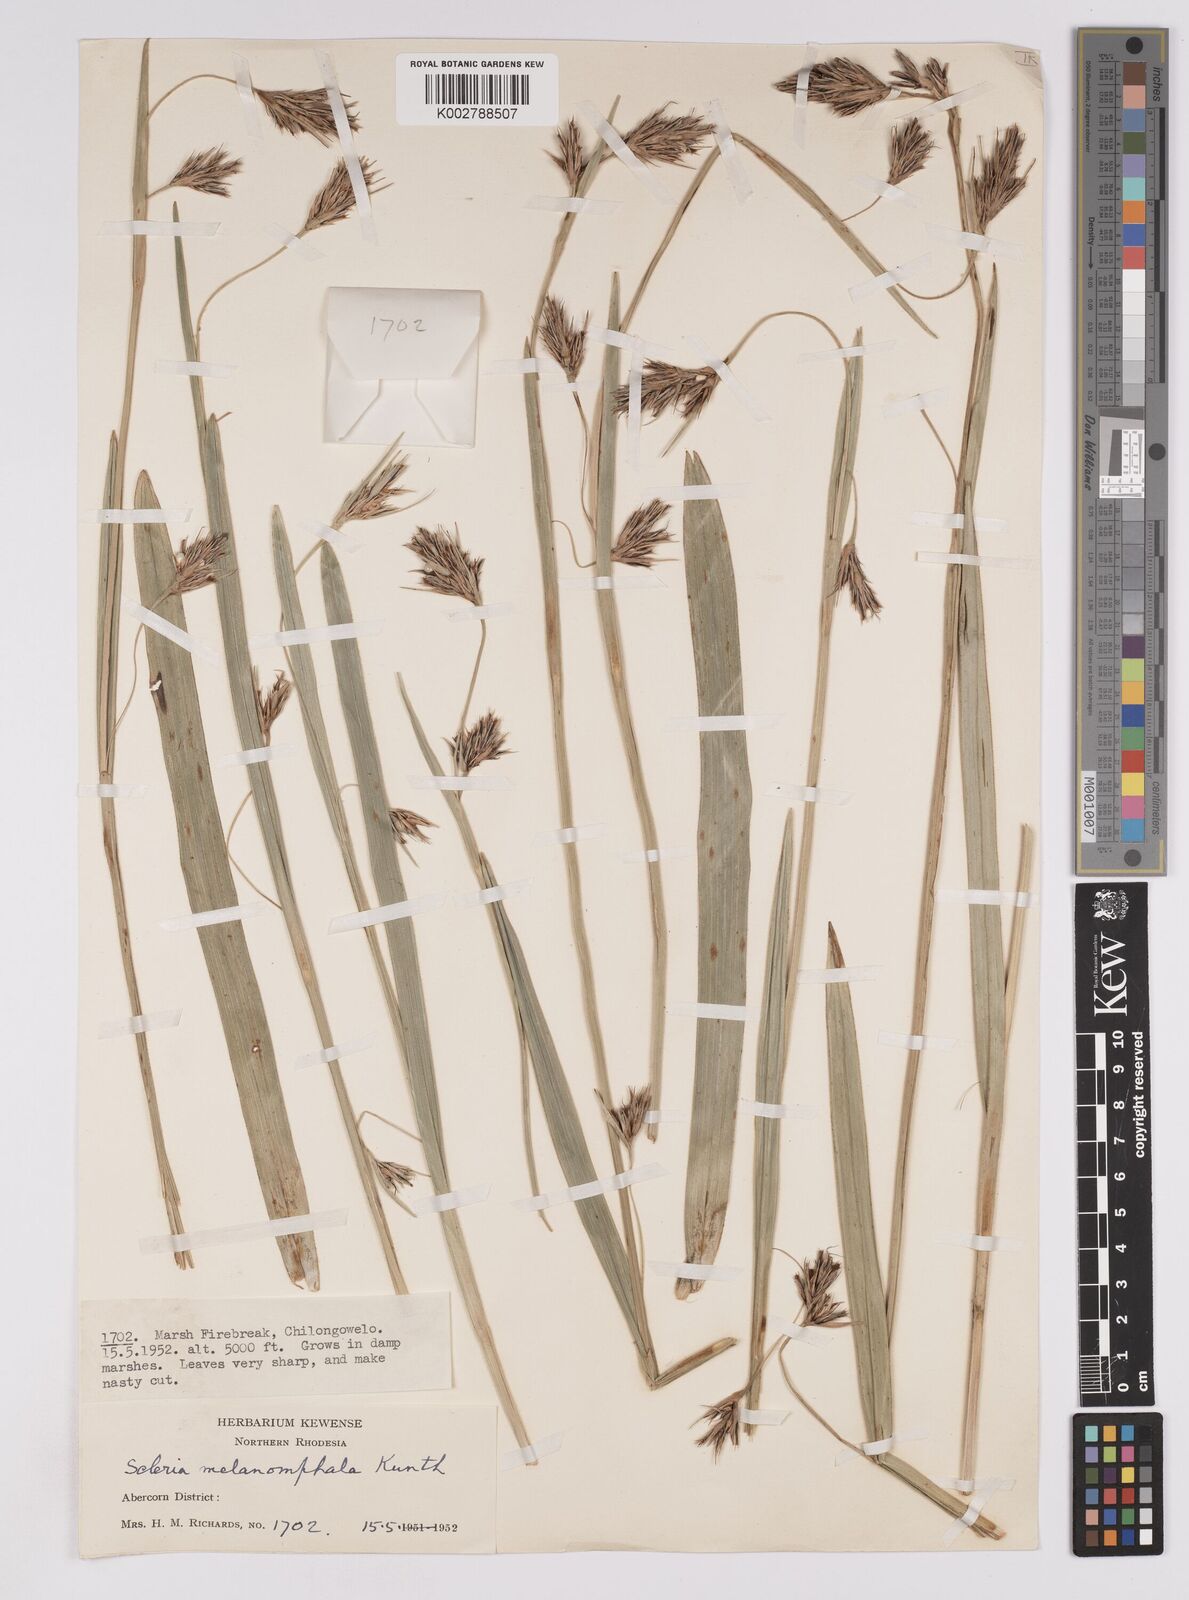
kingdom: Plantae
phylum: Tracheophyta
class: Liliopsida
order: Poales
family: Cyperaceae
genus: Scleria
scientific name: Scleria melanomphala
